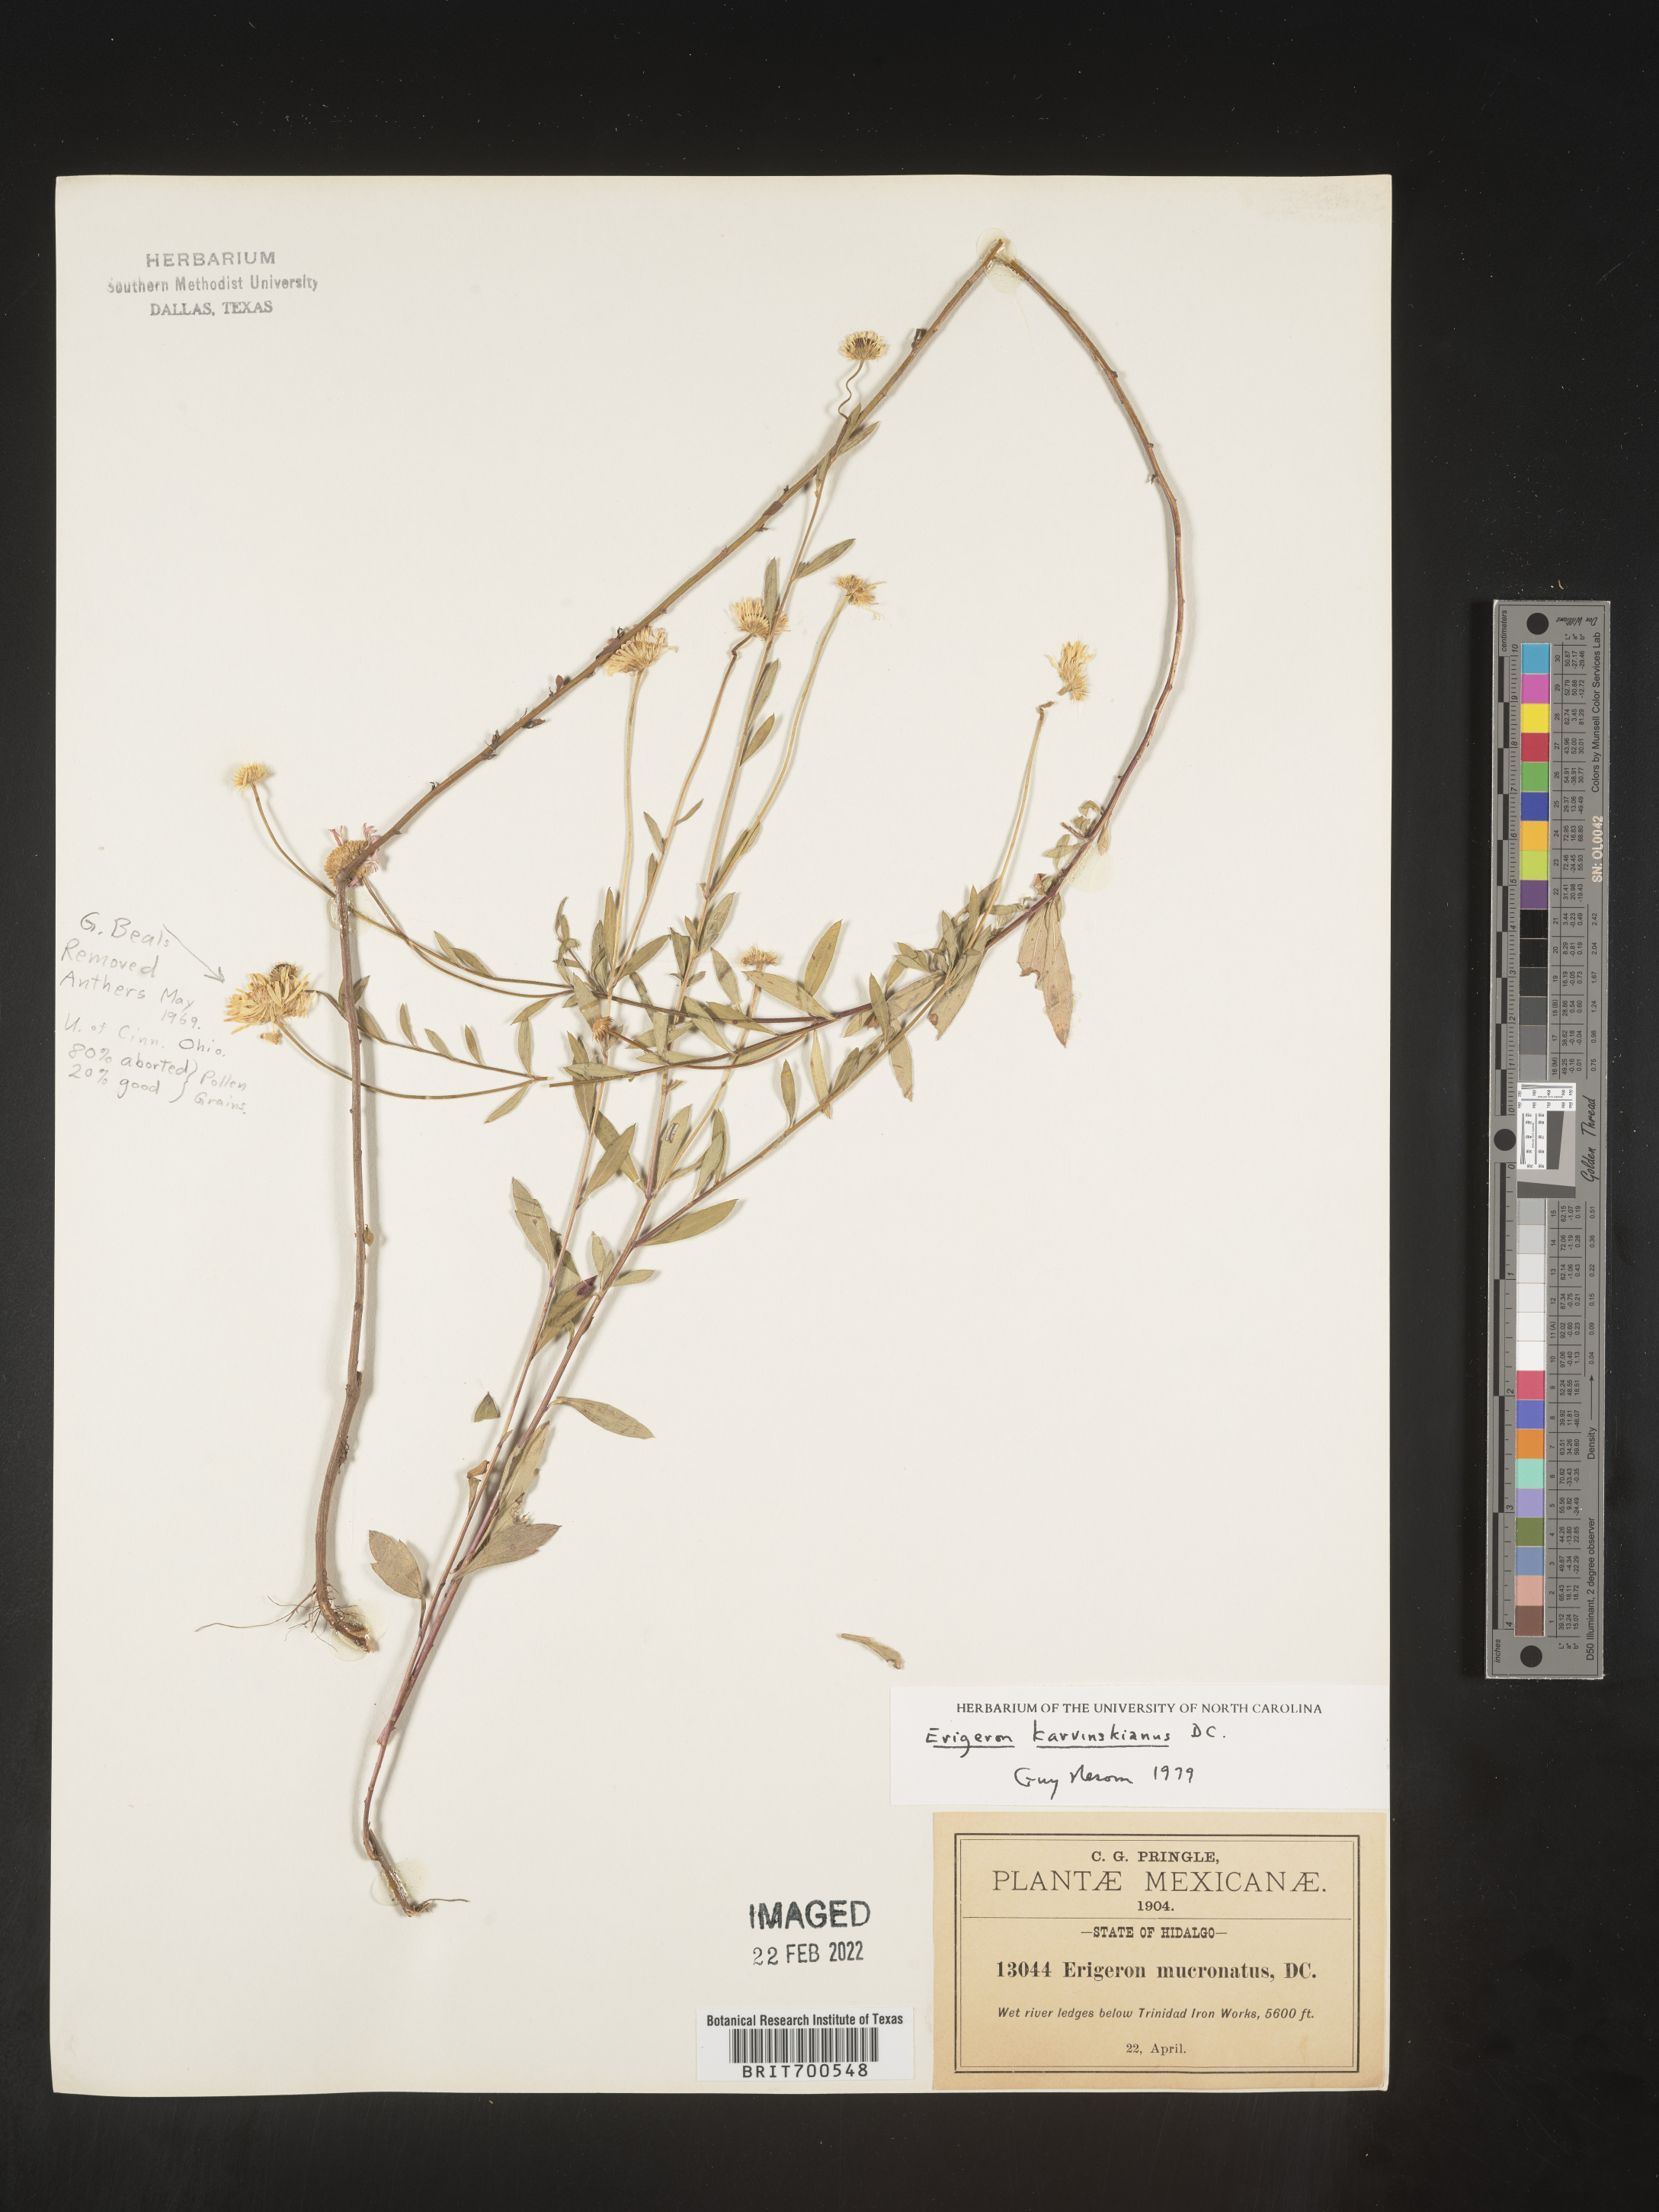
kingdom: Plantae
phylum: Tracheophyta
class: Magnoliopsida
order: Asterales
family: Asteraceae
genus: Erigeron
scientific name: Erigeron karvinskianus
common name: Mexican fleabane
